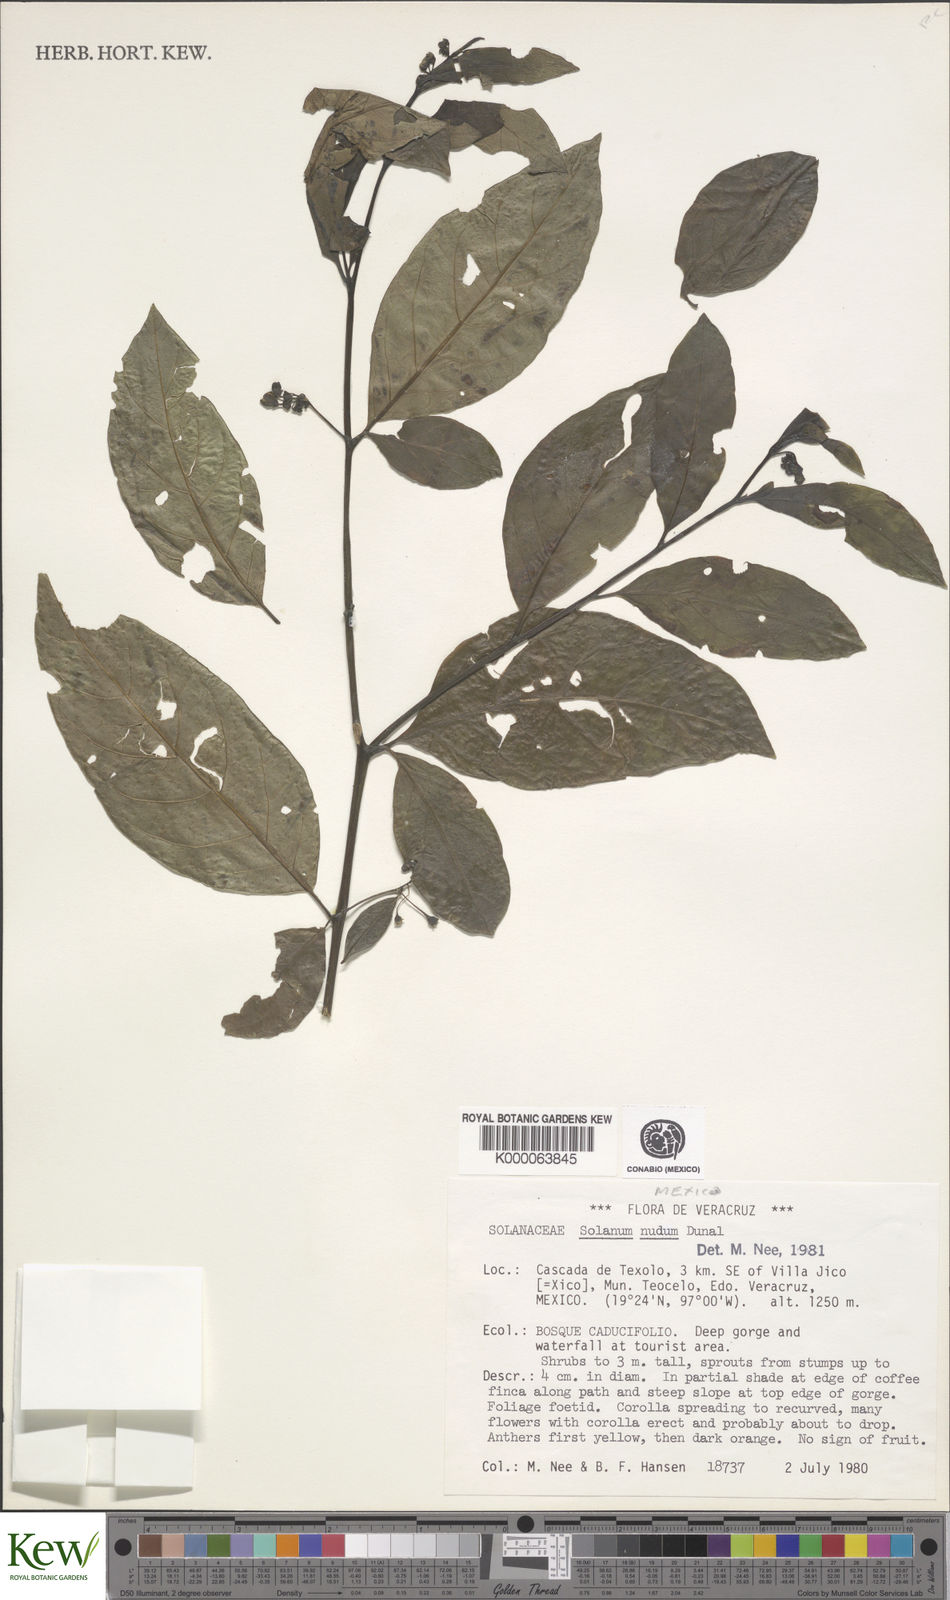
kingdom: Plantae
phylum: Tracheophyta
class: Magnoliopsida
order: Solanales
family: Solanaceae
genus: Solanum
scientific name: Solanum nudum
